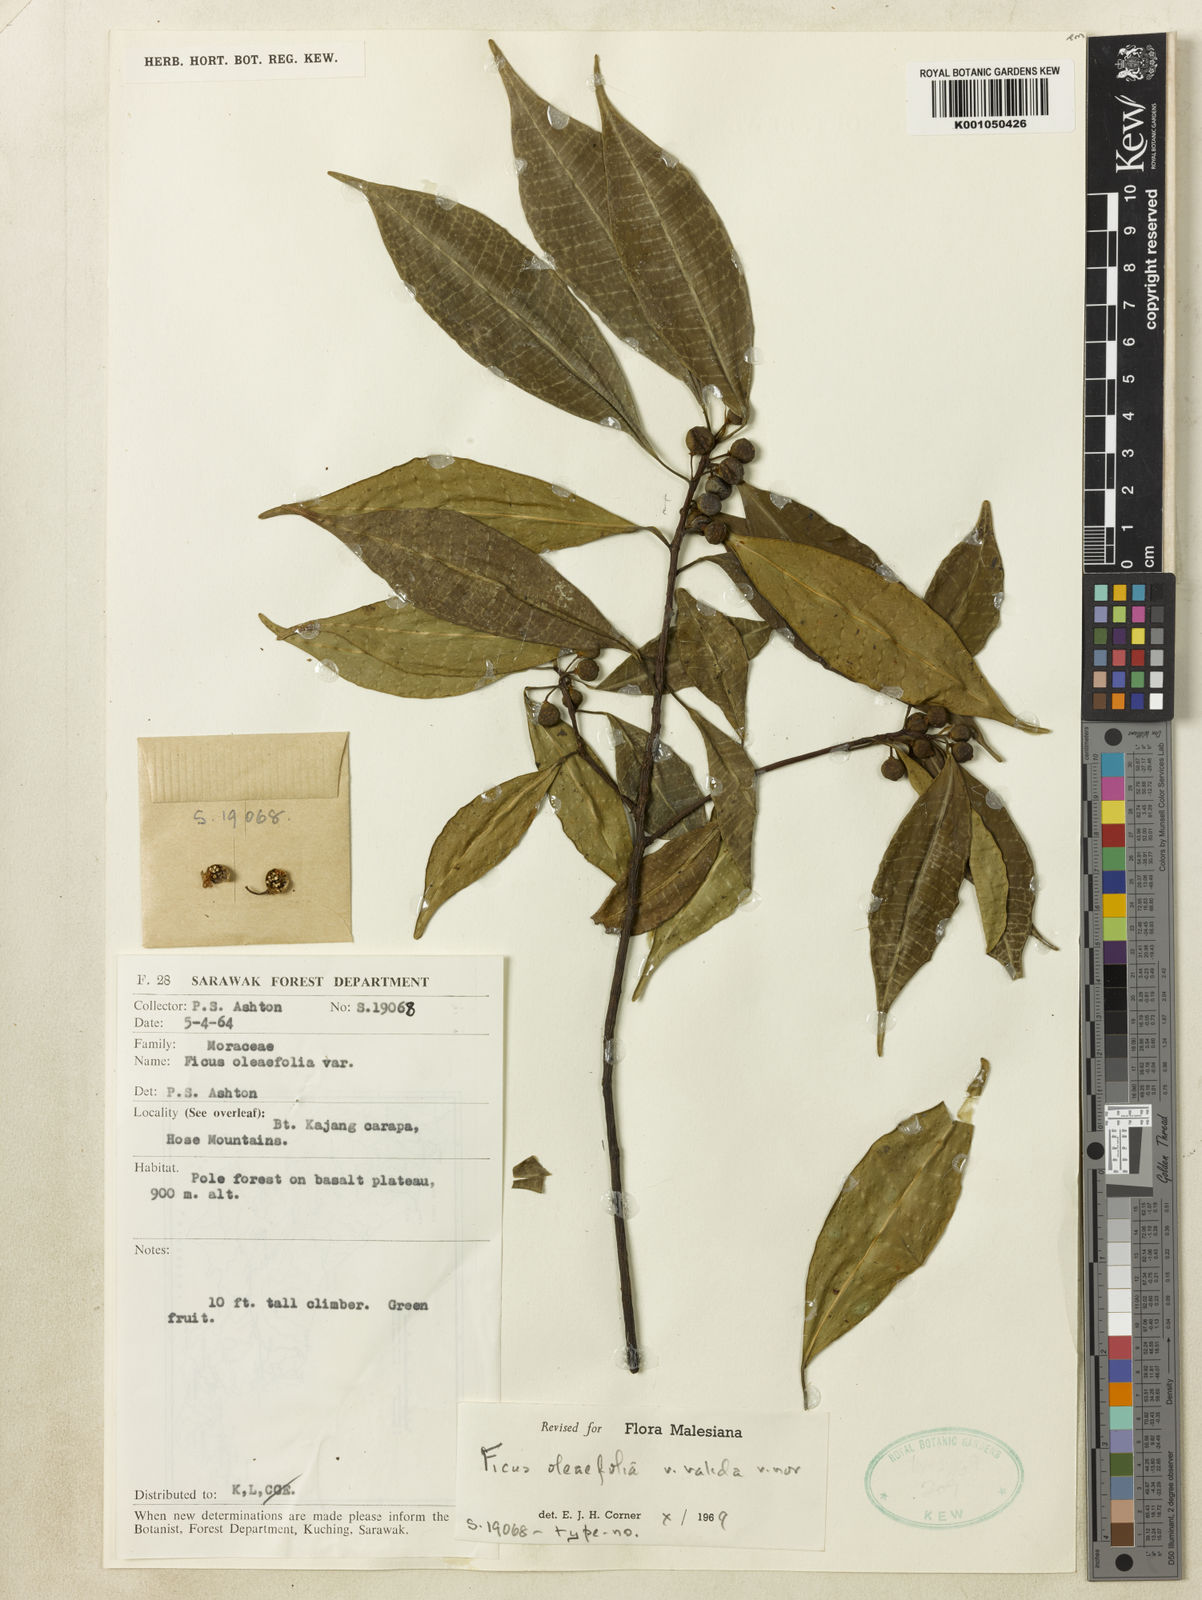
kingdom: Plantae
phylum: Tracheophyta
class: Magnoliopsida
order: Rosales
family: Moraceae
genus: Ficus
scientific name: Ficus oleifolia
